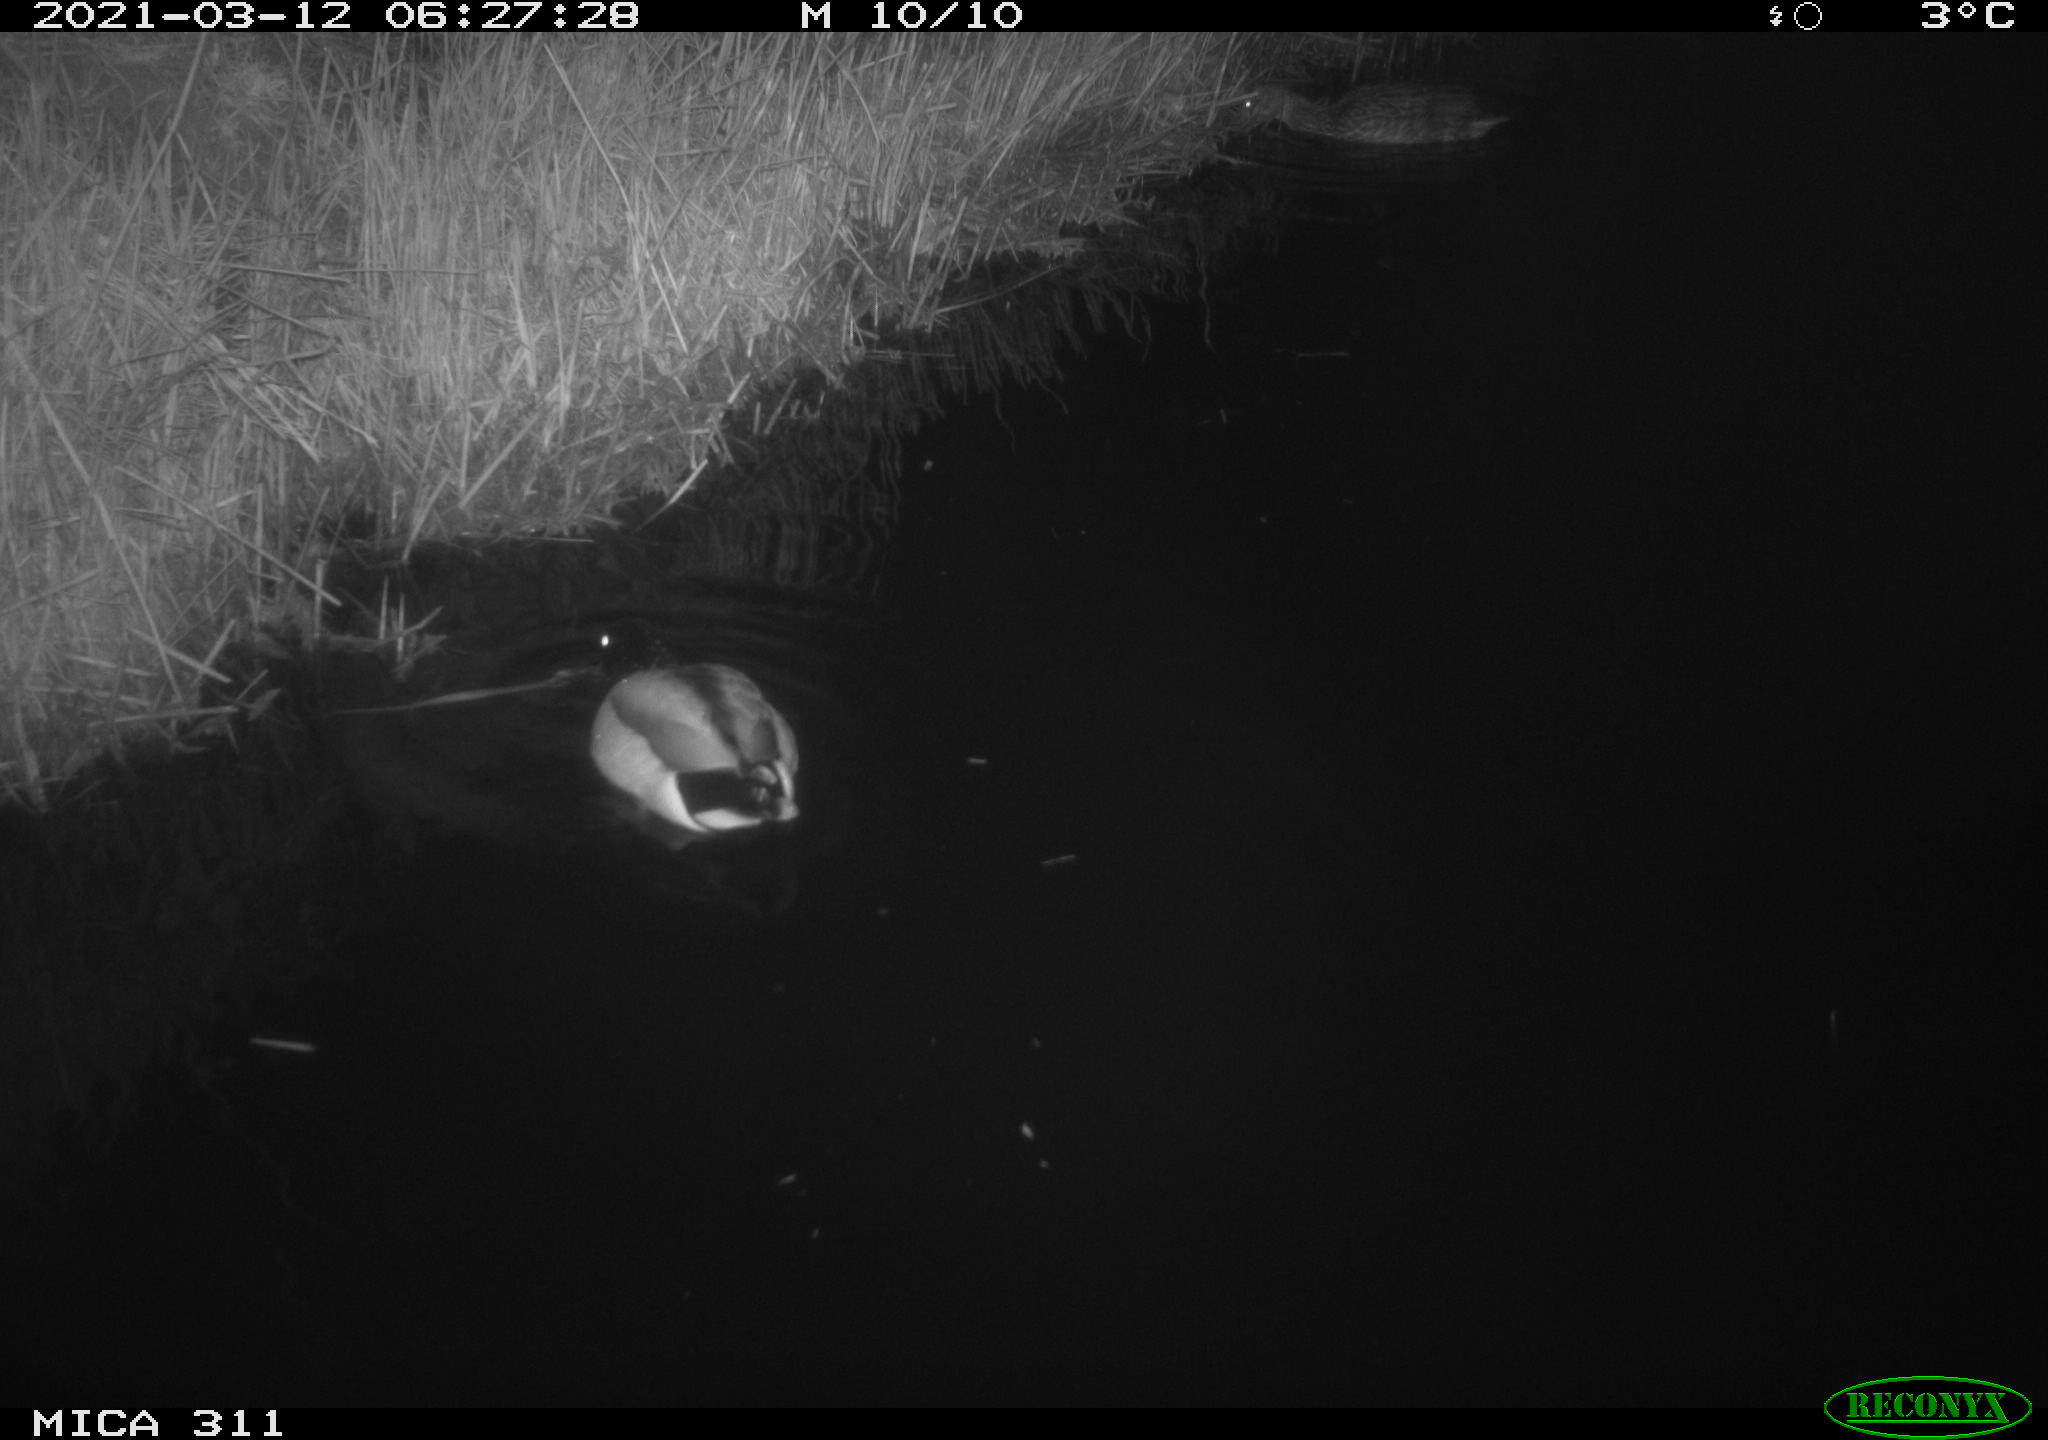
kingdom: Animalia
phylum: Chordata
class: Aves
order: Anseriformes
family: Anatidae
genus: Anas
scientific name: Anas
